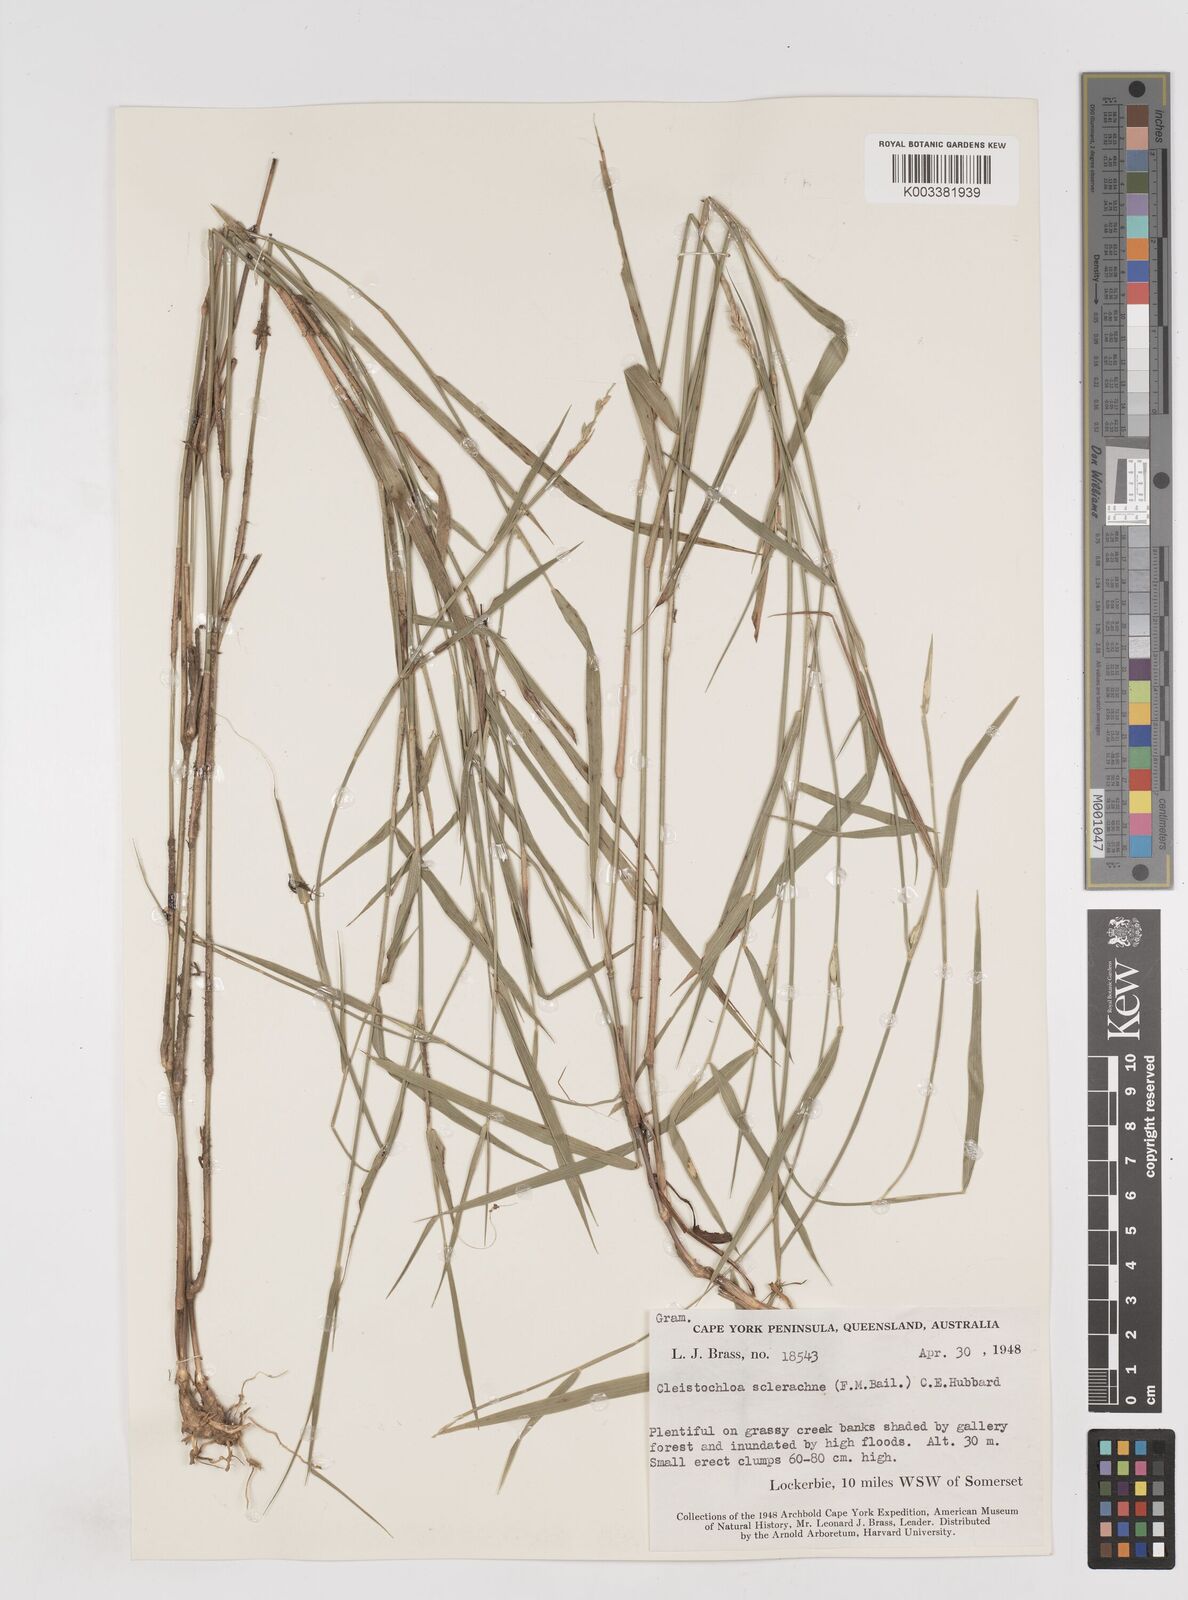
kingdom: Plantae
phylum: Tracheophyta
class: Liliopsida
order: Poales
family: Poaceae
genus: Cleistochloa
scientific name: Cleistochloa sclerachne
